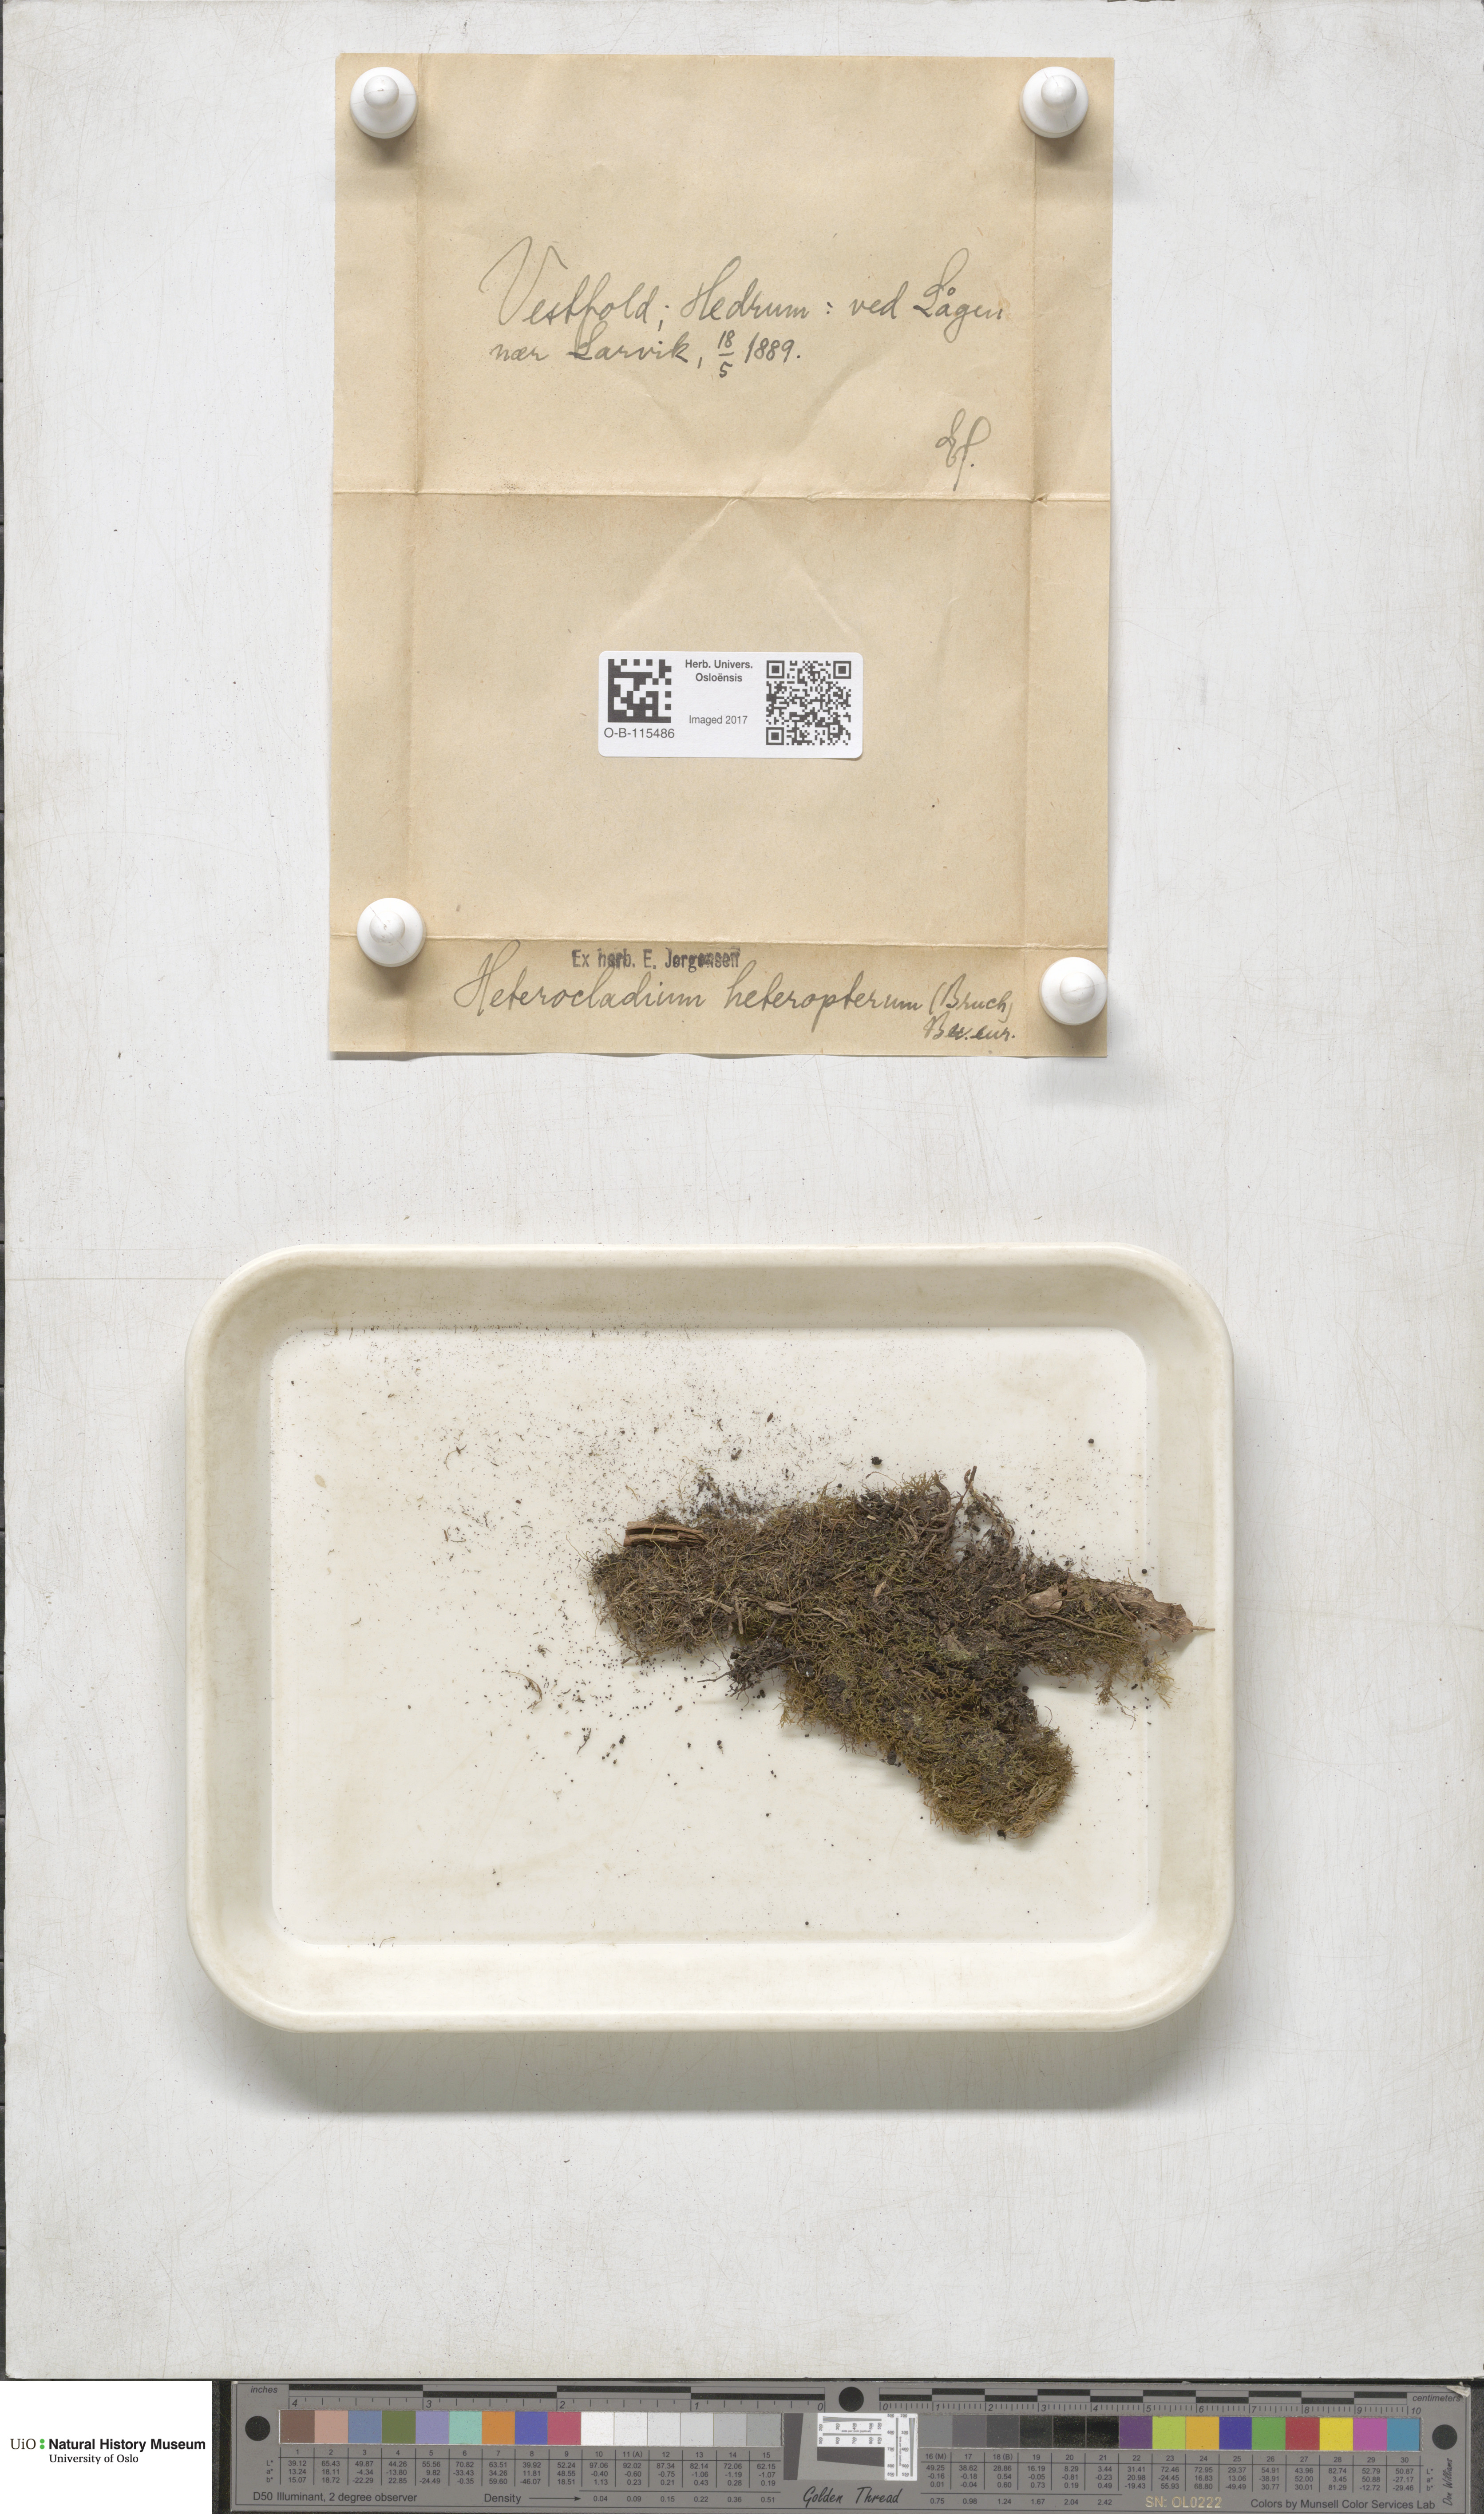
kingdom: Plantae
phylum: Bryophyta
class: Bryopsida
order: Hypnales
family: Lembophyllaceae
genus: Heterocladium
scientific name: Heterocladium heteropterum
